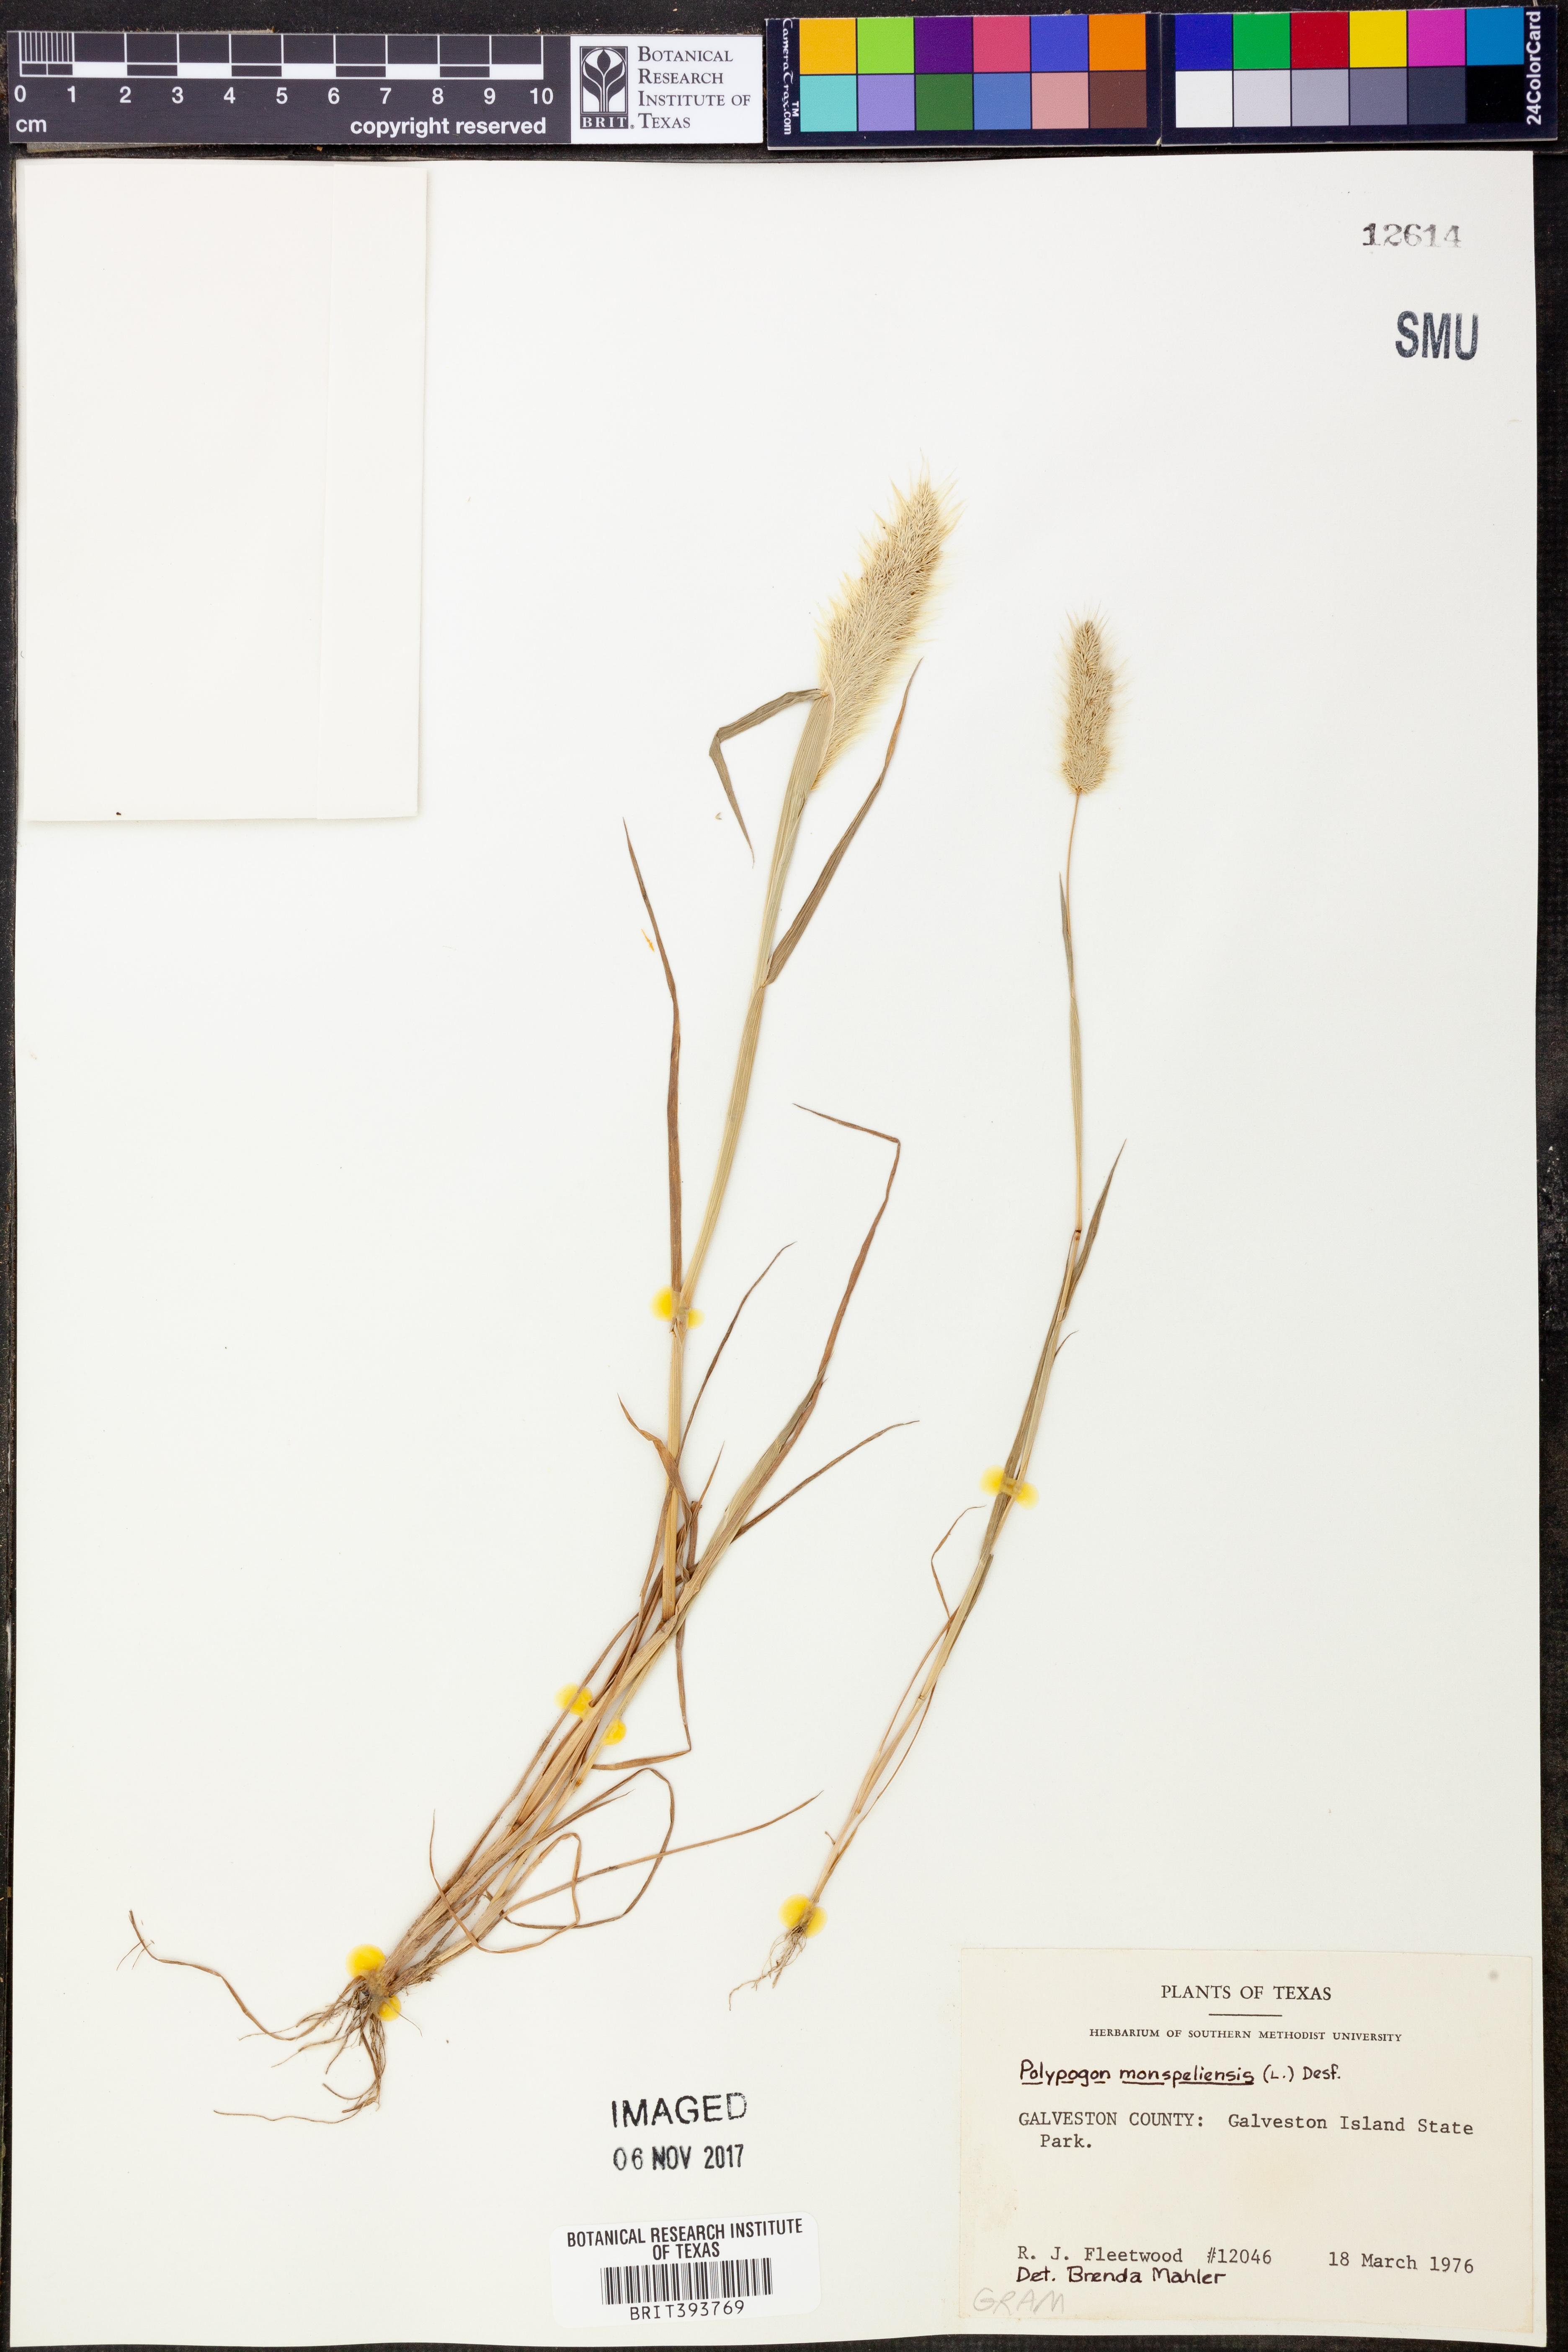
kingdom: Plantae
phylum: Tracheophyta
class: Liliopsida
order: Poales
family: Poaceae
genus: Polypogon
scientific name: Polypogon monspeliensis
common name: Annual rabbitsfoot grass
